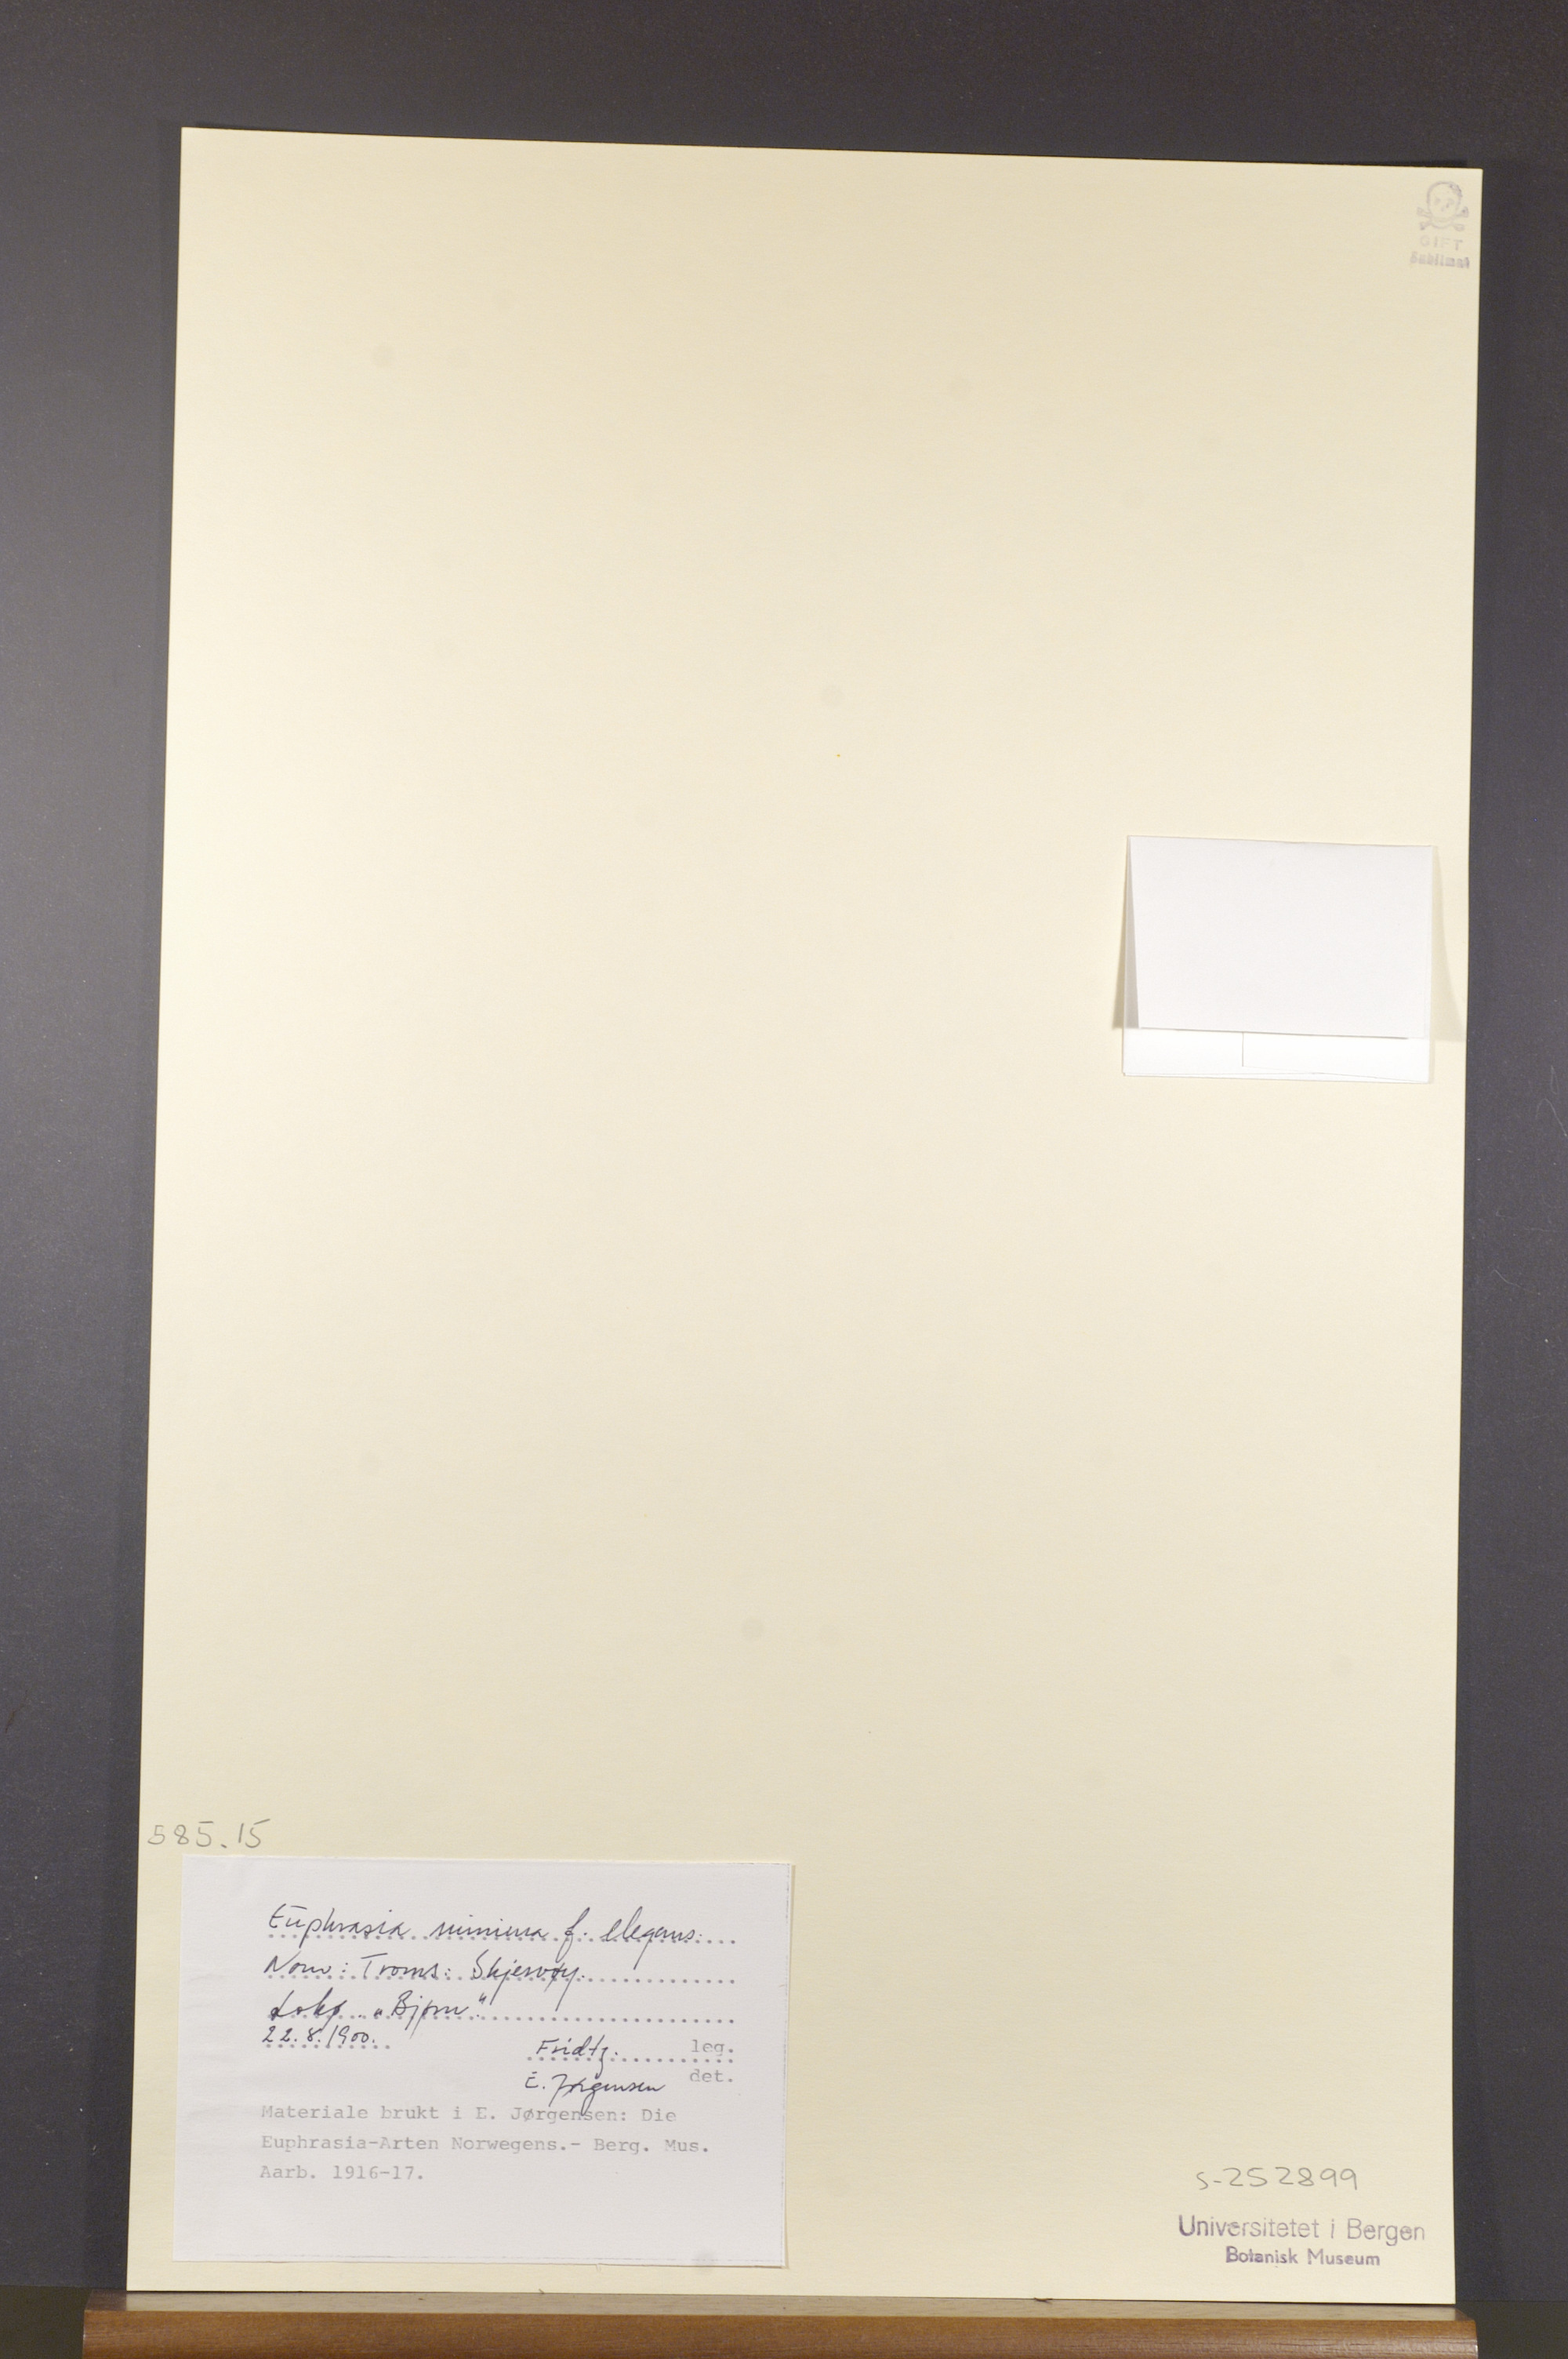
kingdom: Plantae
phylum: Tracheophyta
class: Magnoliopsida
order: Lamiales
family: Orobanchaceae
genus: Euphrasia
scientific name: Euphrasia minima
